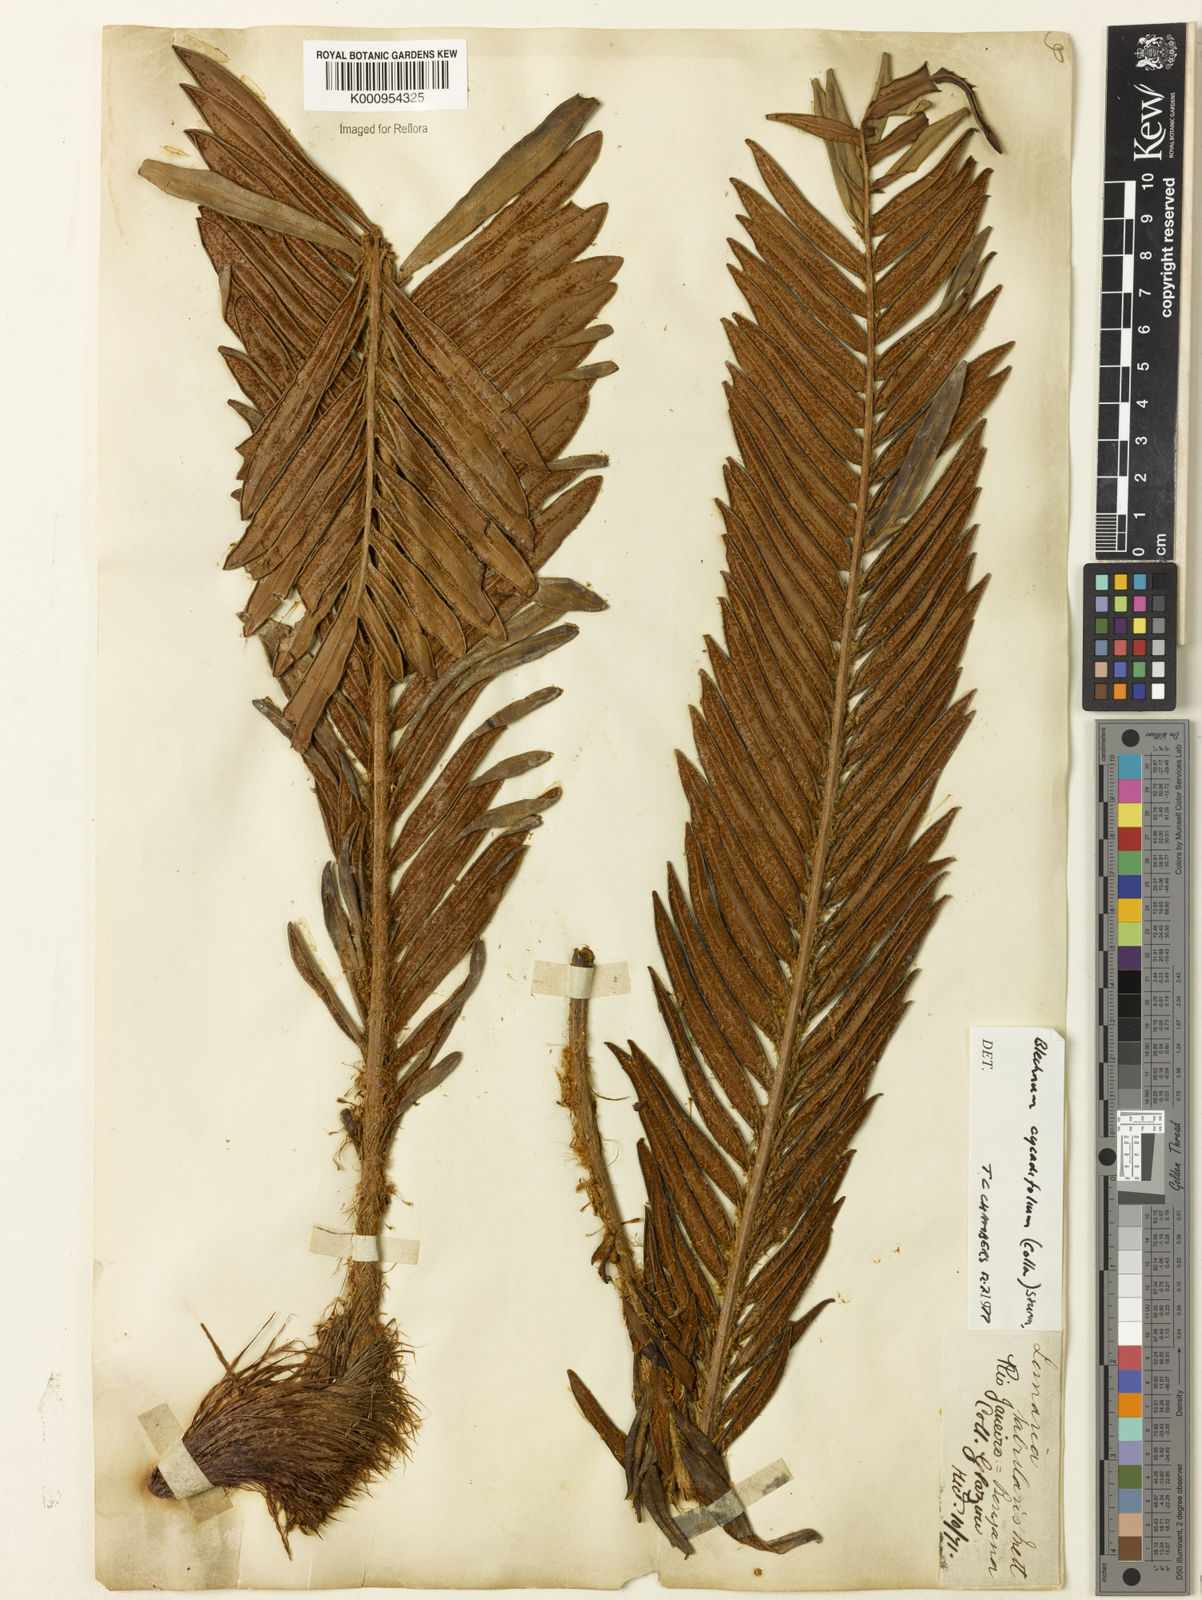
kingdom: Plantae
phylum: Tracheophyta
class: Polypodiopsida
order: Polypodiales
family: Blechnaceae
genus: Lomariocycas
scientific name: Lomariocycas cycadifolia
